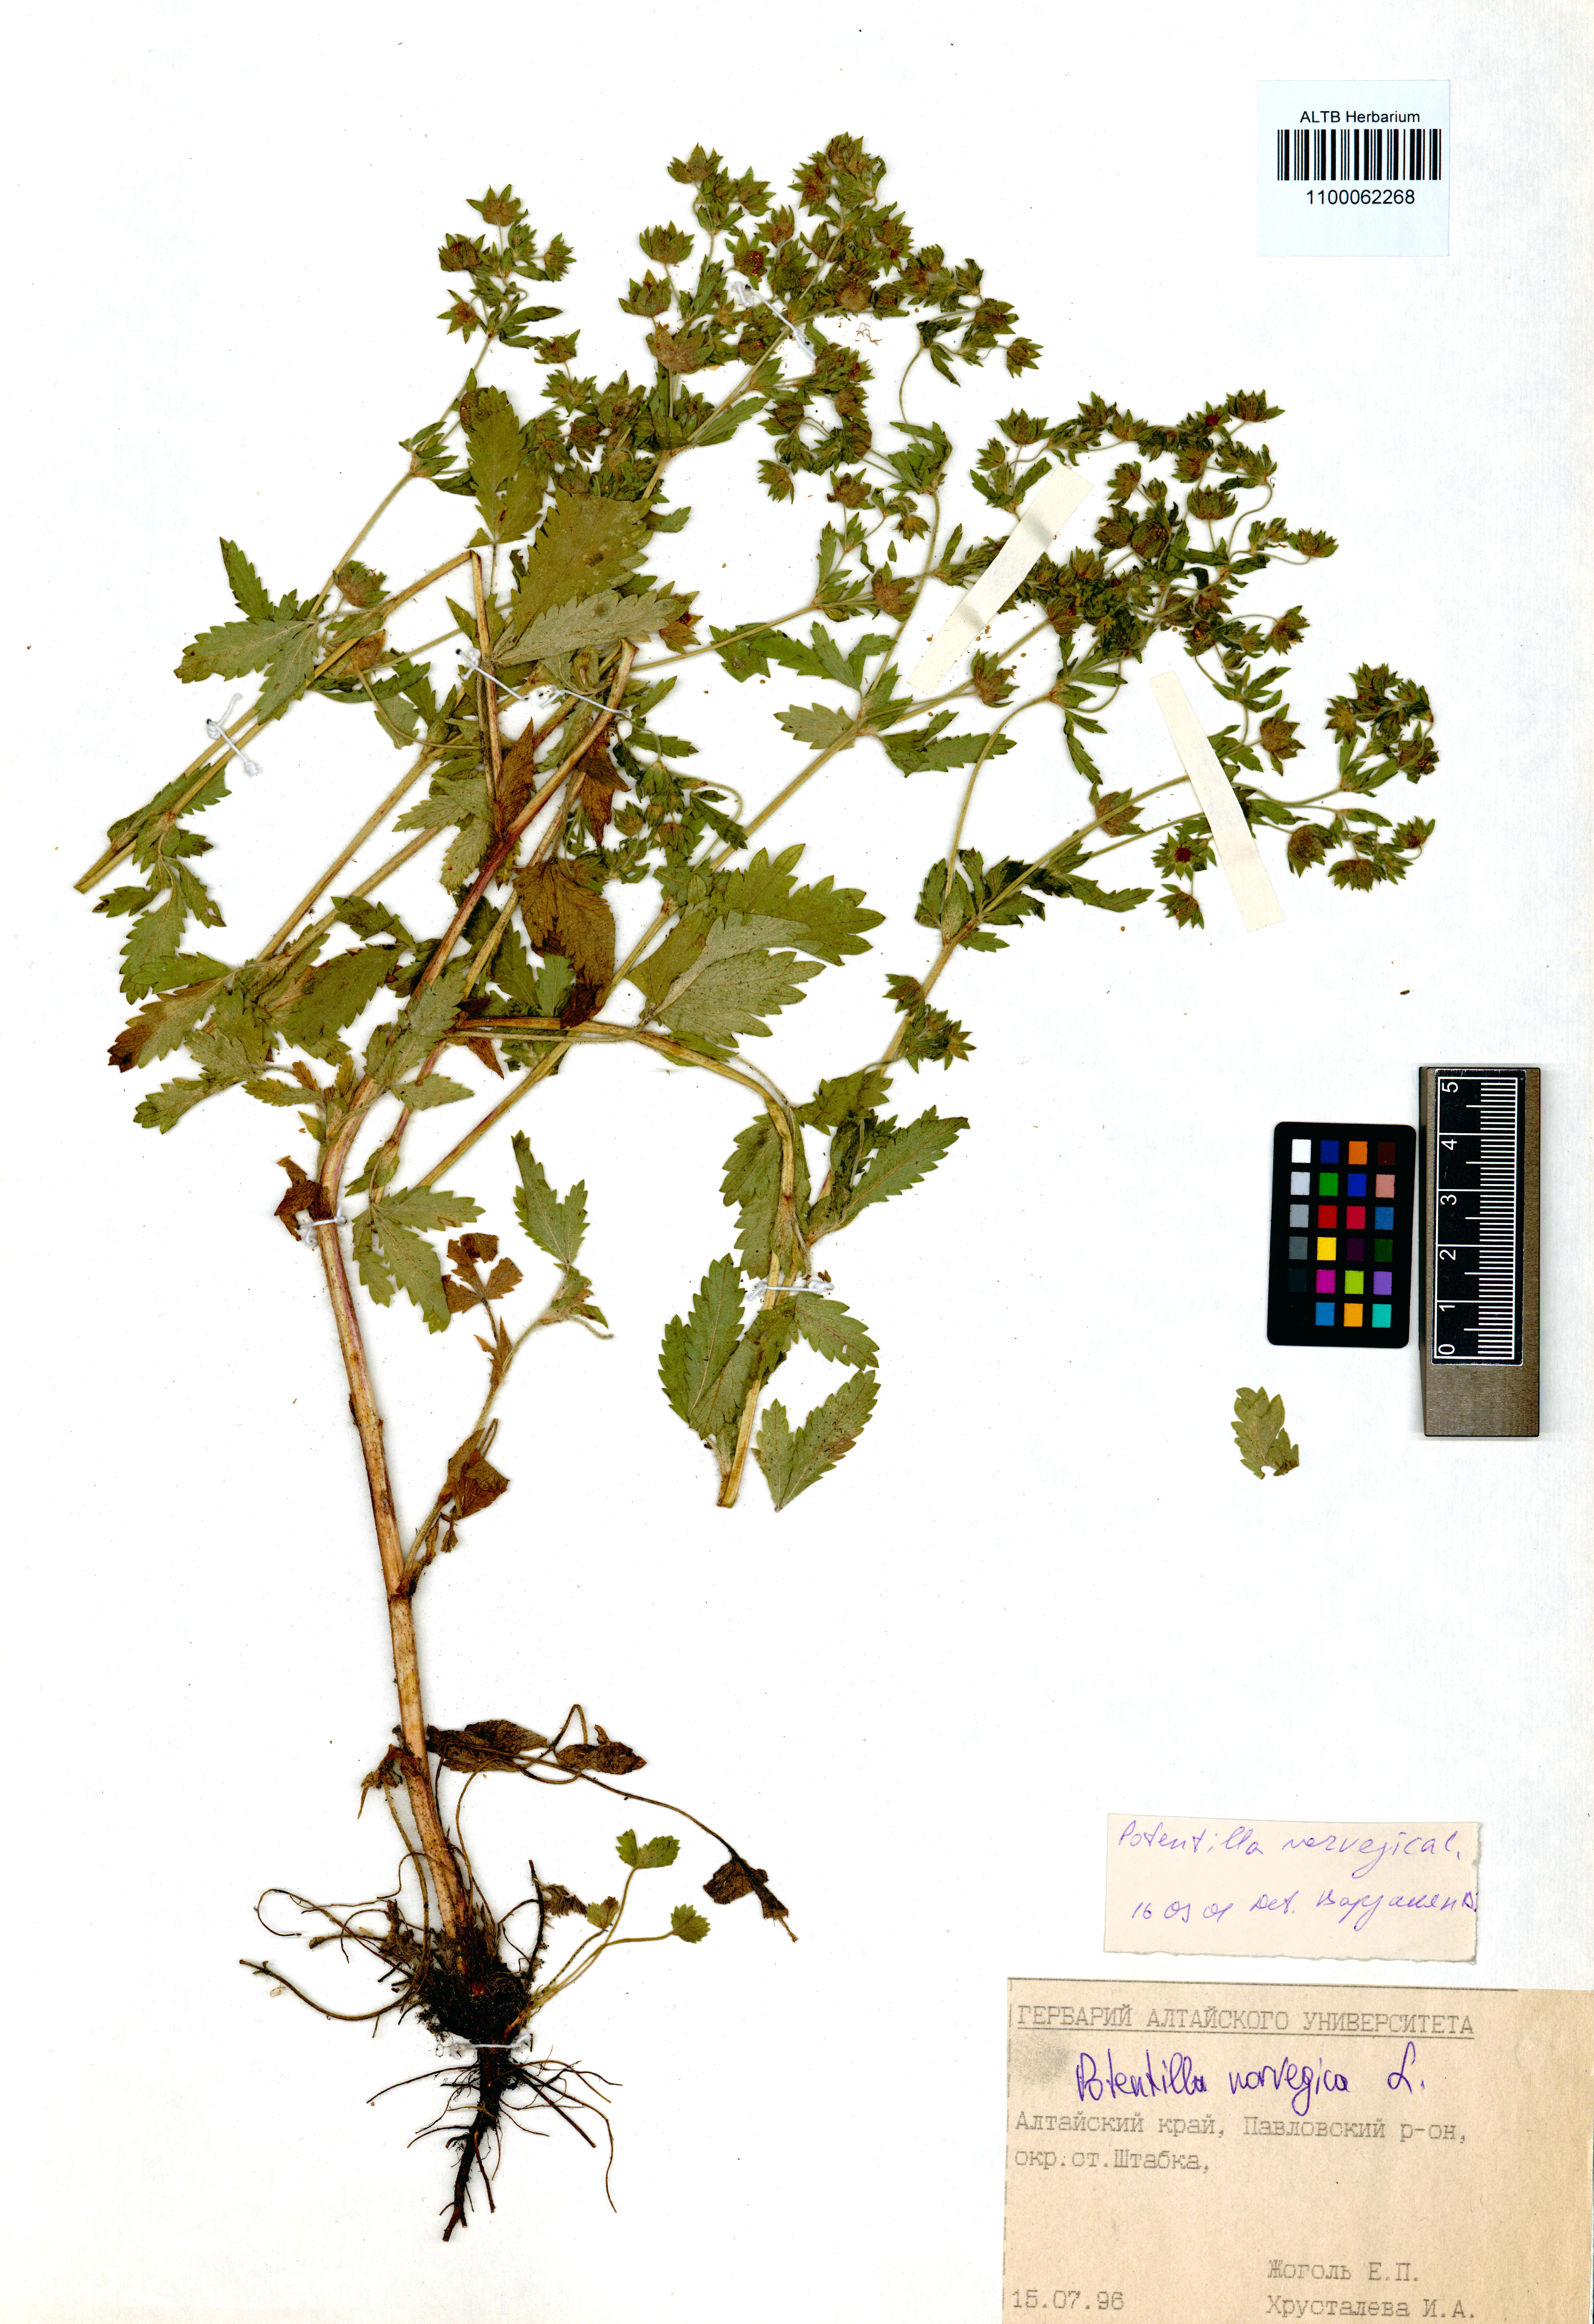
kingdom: Plantae
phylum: Tracheophyta
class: Magnoliopsida
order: Rosales
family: Rosaceae
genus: Potentilla
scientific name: Potentilla norvegica
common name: Ternate-leaved cinquefoil
